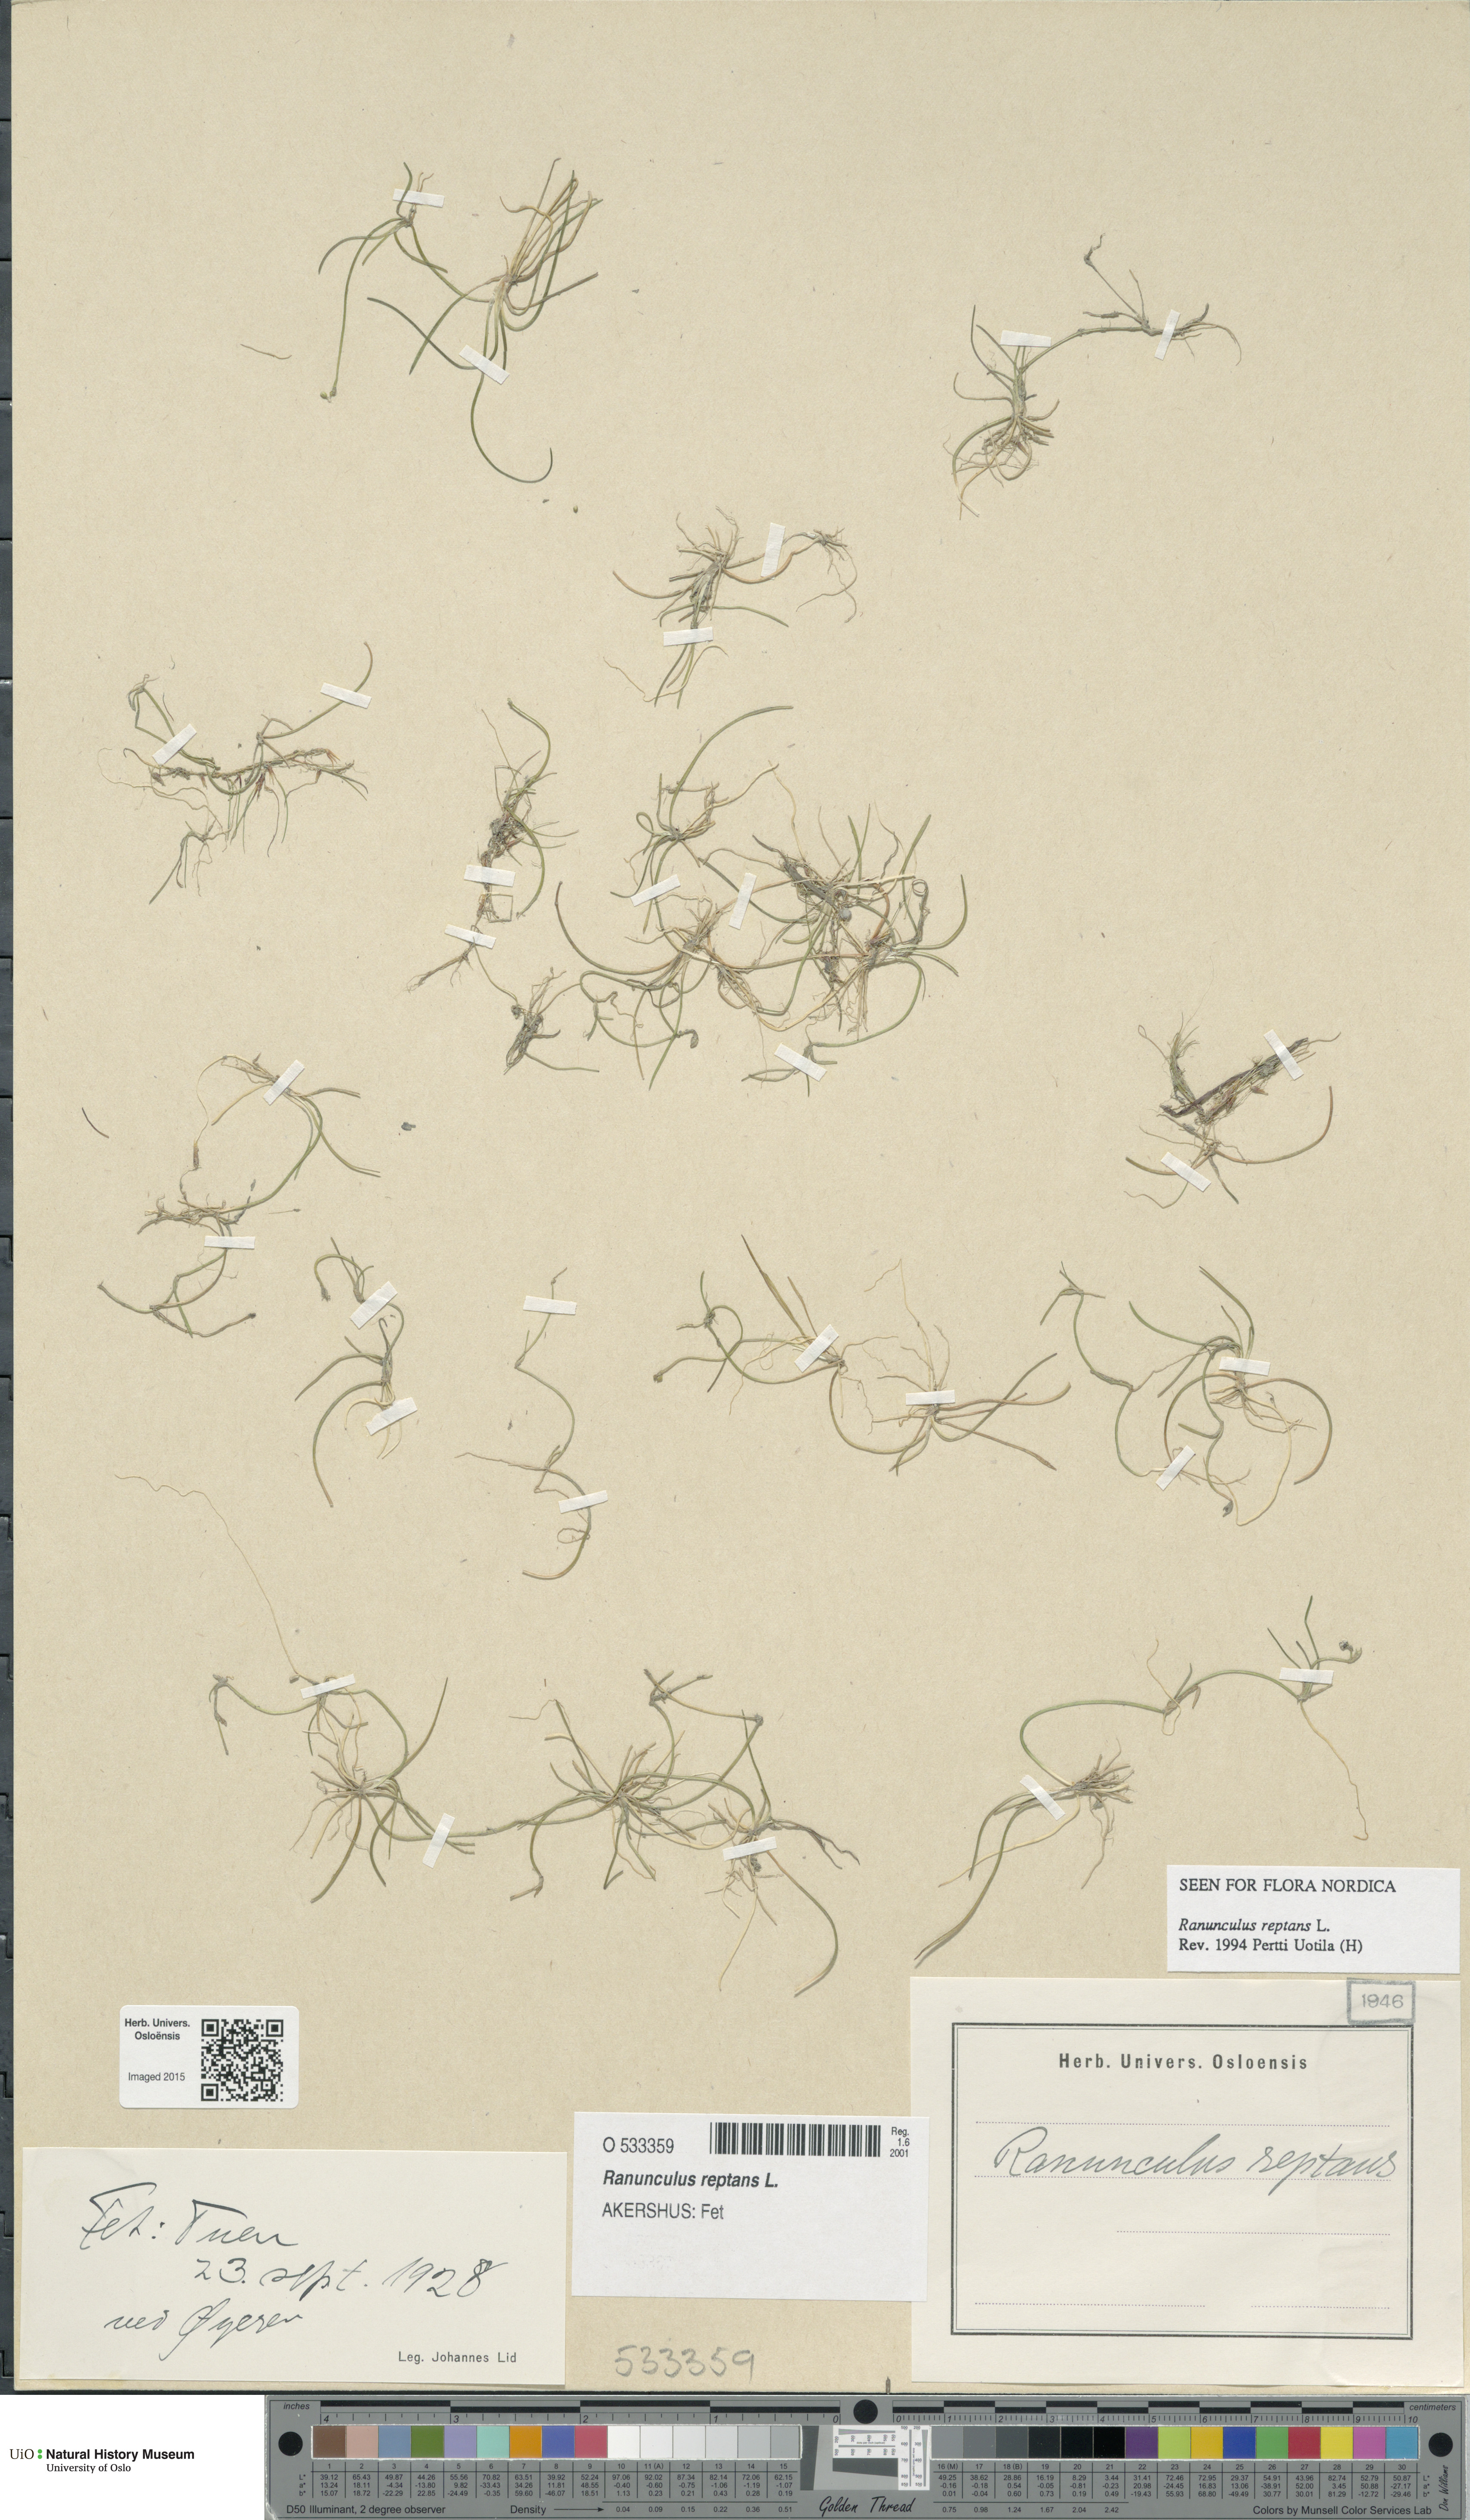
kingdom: Plantae
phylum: Tracheophyta
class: Magnoliopsida
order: Ranunculales
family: Ranunculaceae
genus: Ranunculus
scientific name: Ranunculus reptans
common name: Creeping spearwort
